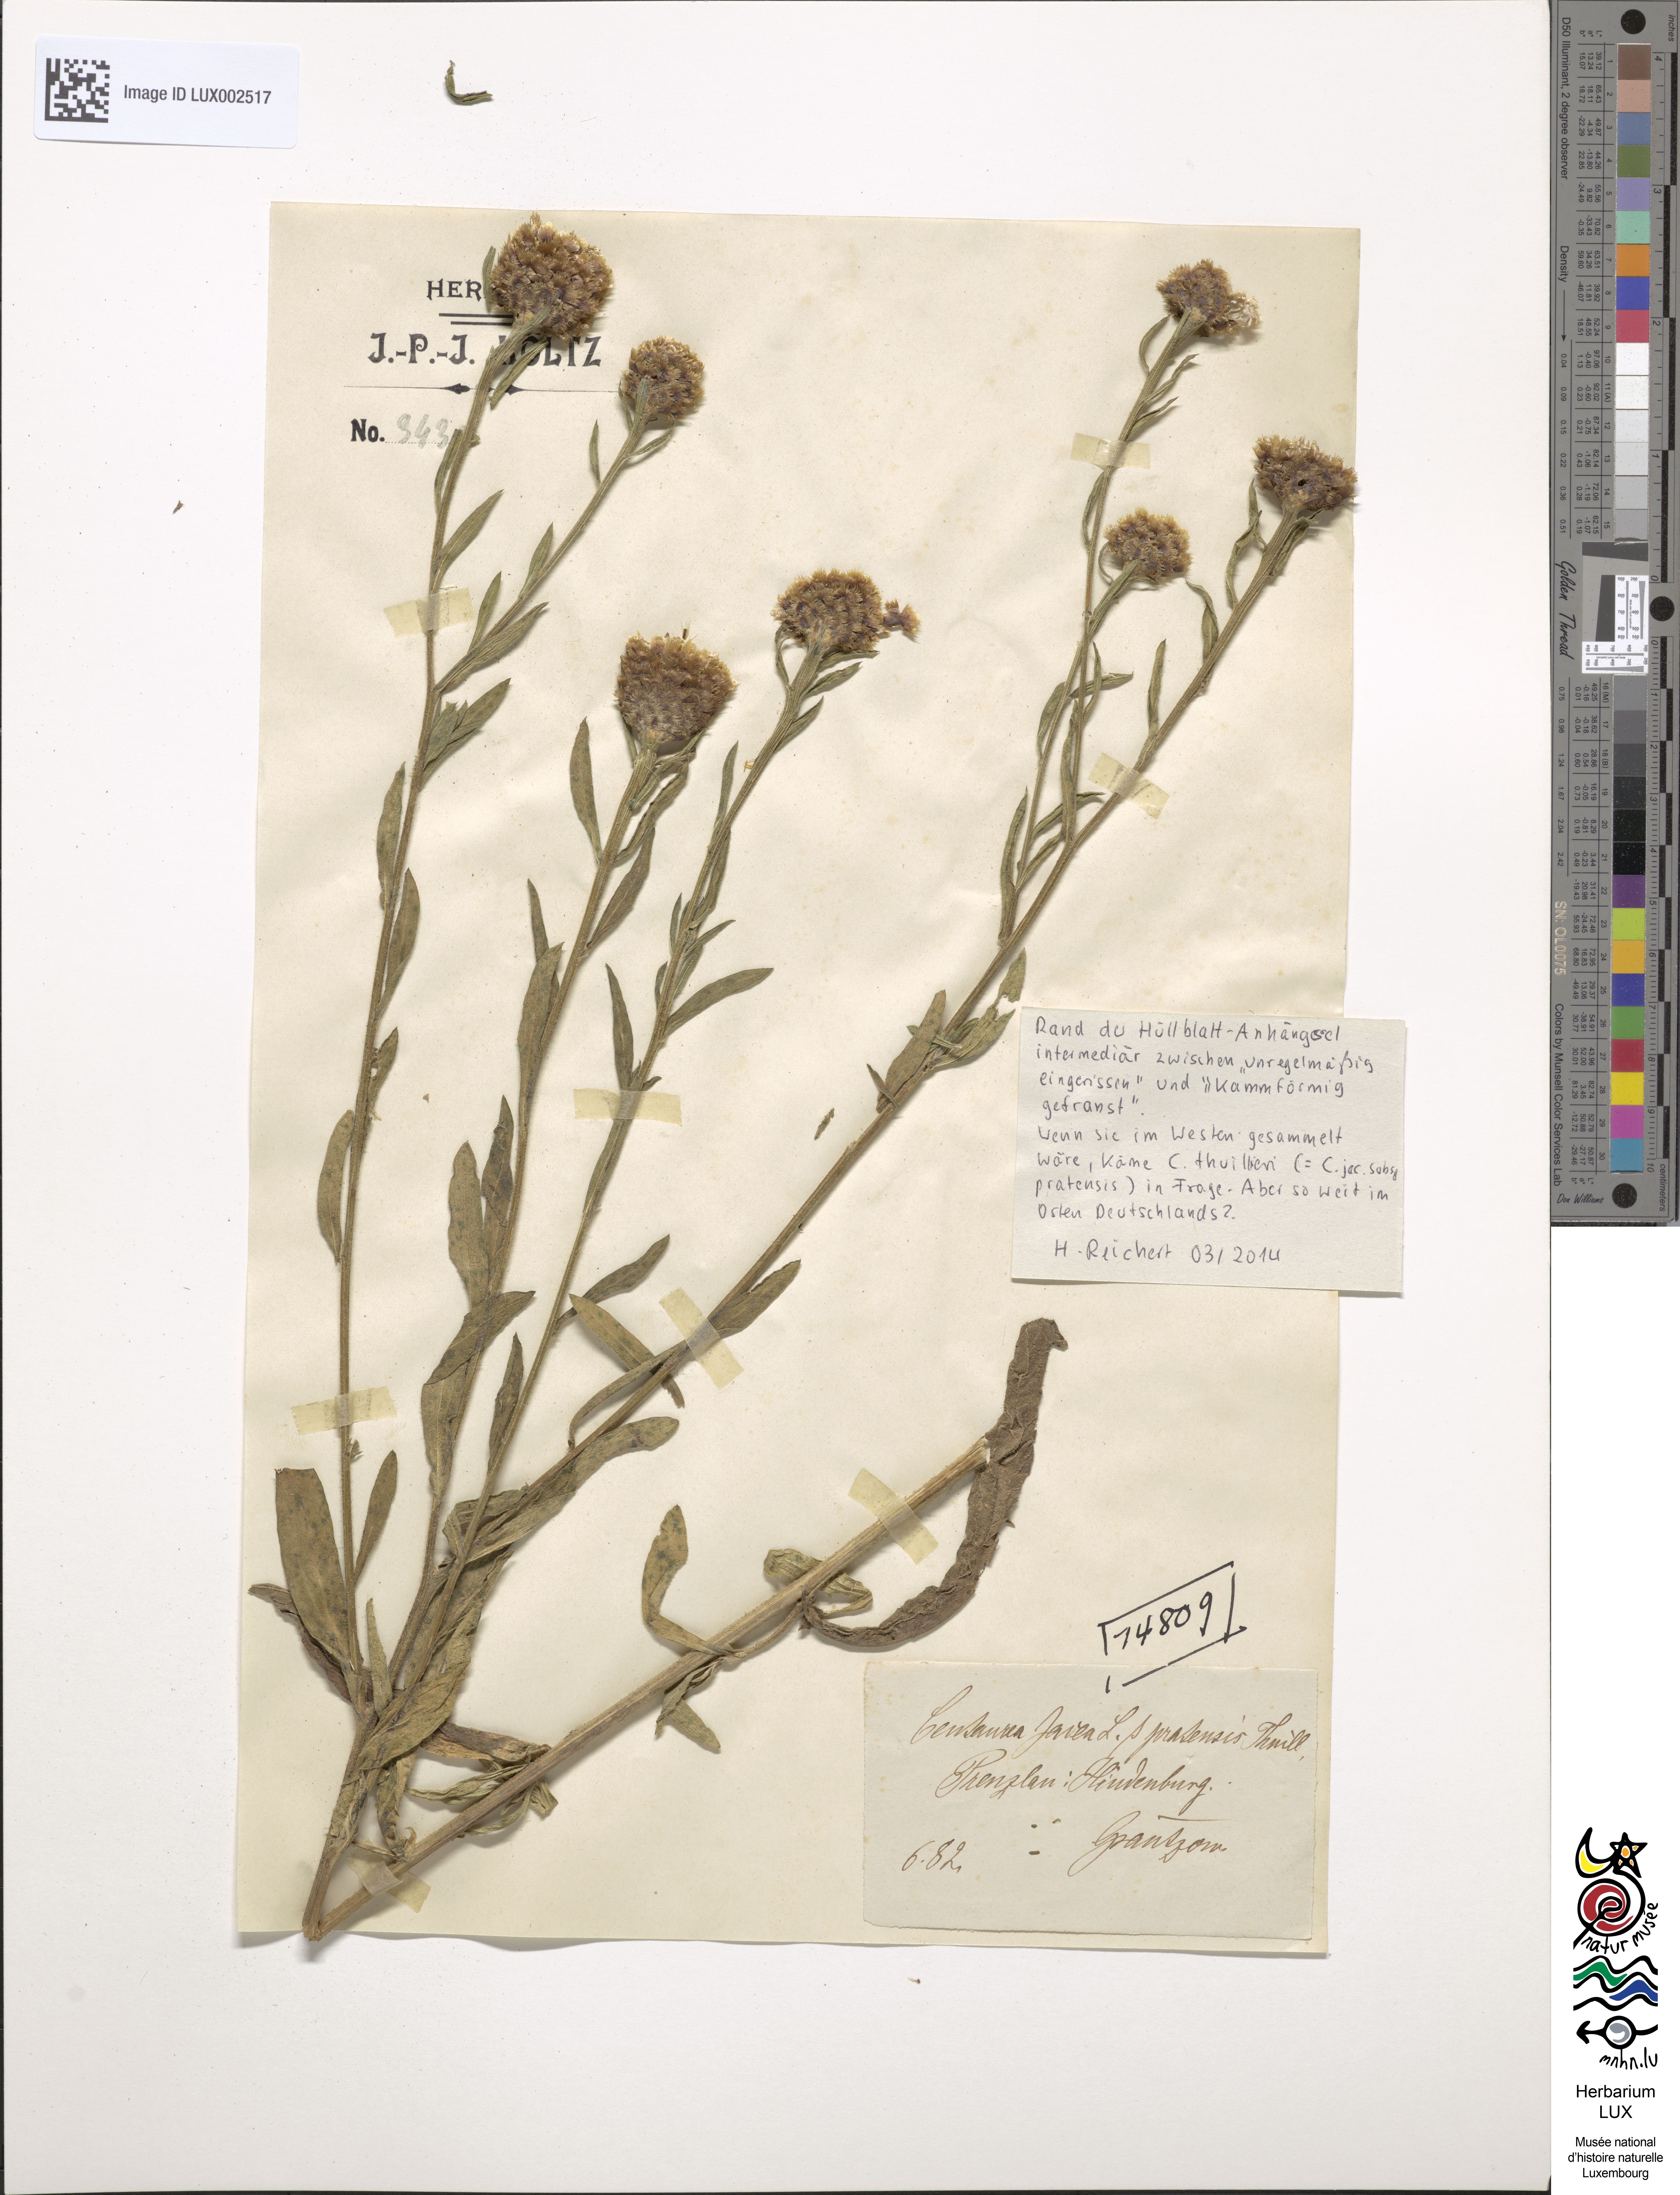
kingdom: Plantae
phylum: Tracheophyta
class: Magnoliopsida
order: Asterales
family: Asteraceae
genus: Centaurea
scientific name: Centaurea thuillieri
